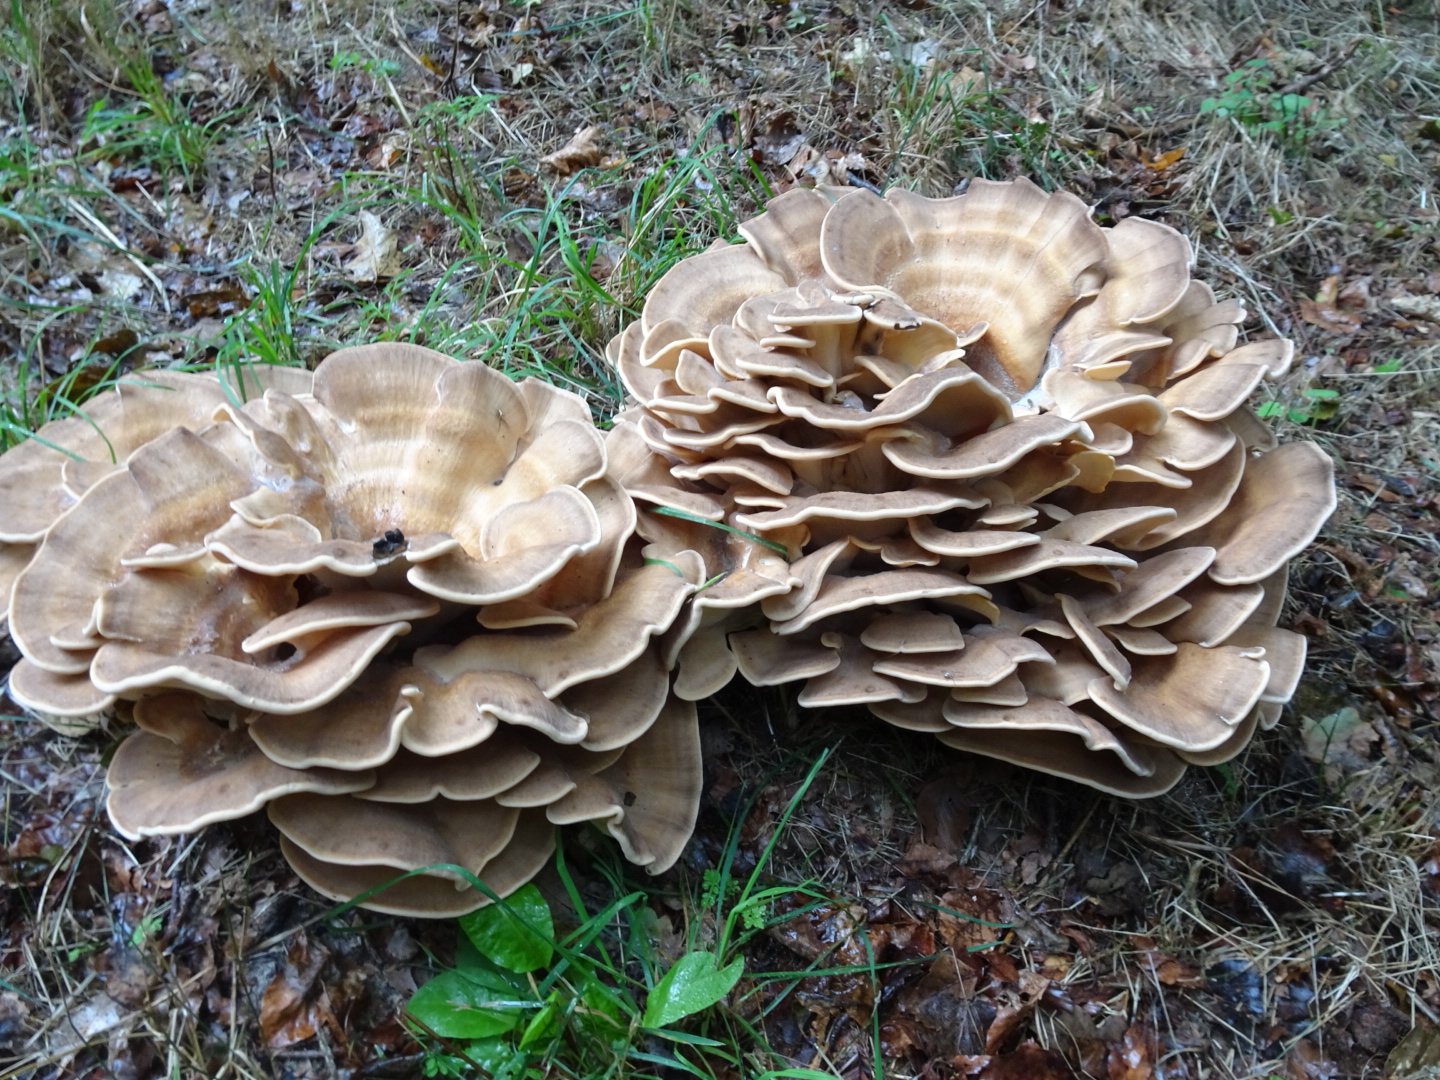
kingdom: Fungi
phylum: Basidiomycota
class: Agaricomycetes
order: Polyporales
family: Meripilaceae
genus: Meripilus
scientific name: Meripilus giganteus
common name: kæmpeporesvamp
